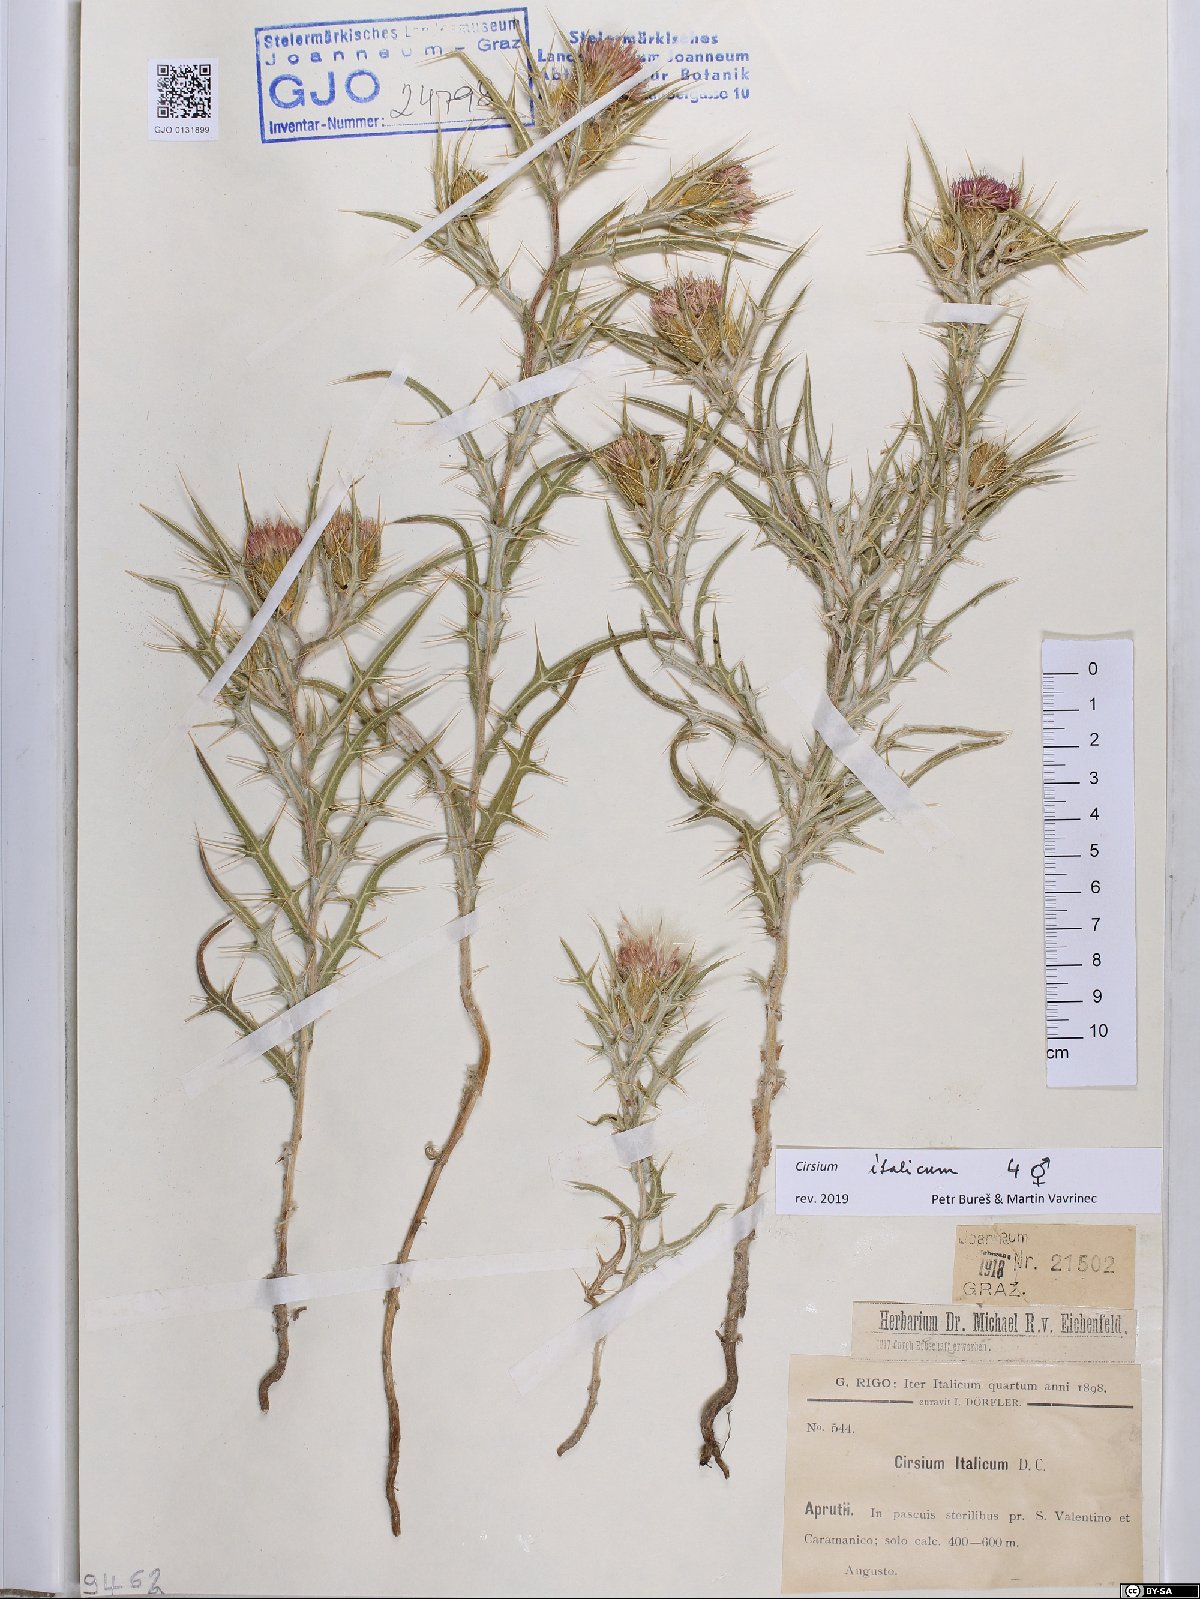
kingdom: Plantae
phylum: Tracheophyta
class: Magnoliopsida
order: Asterales
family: Asteraceae
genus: Epitrachys
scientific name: Epitrachys italica
